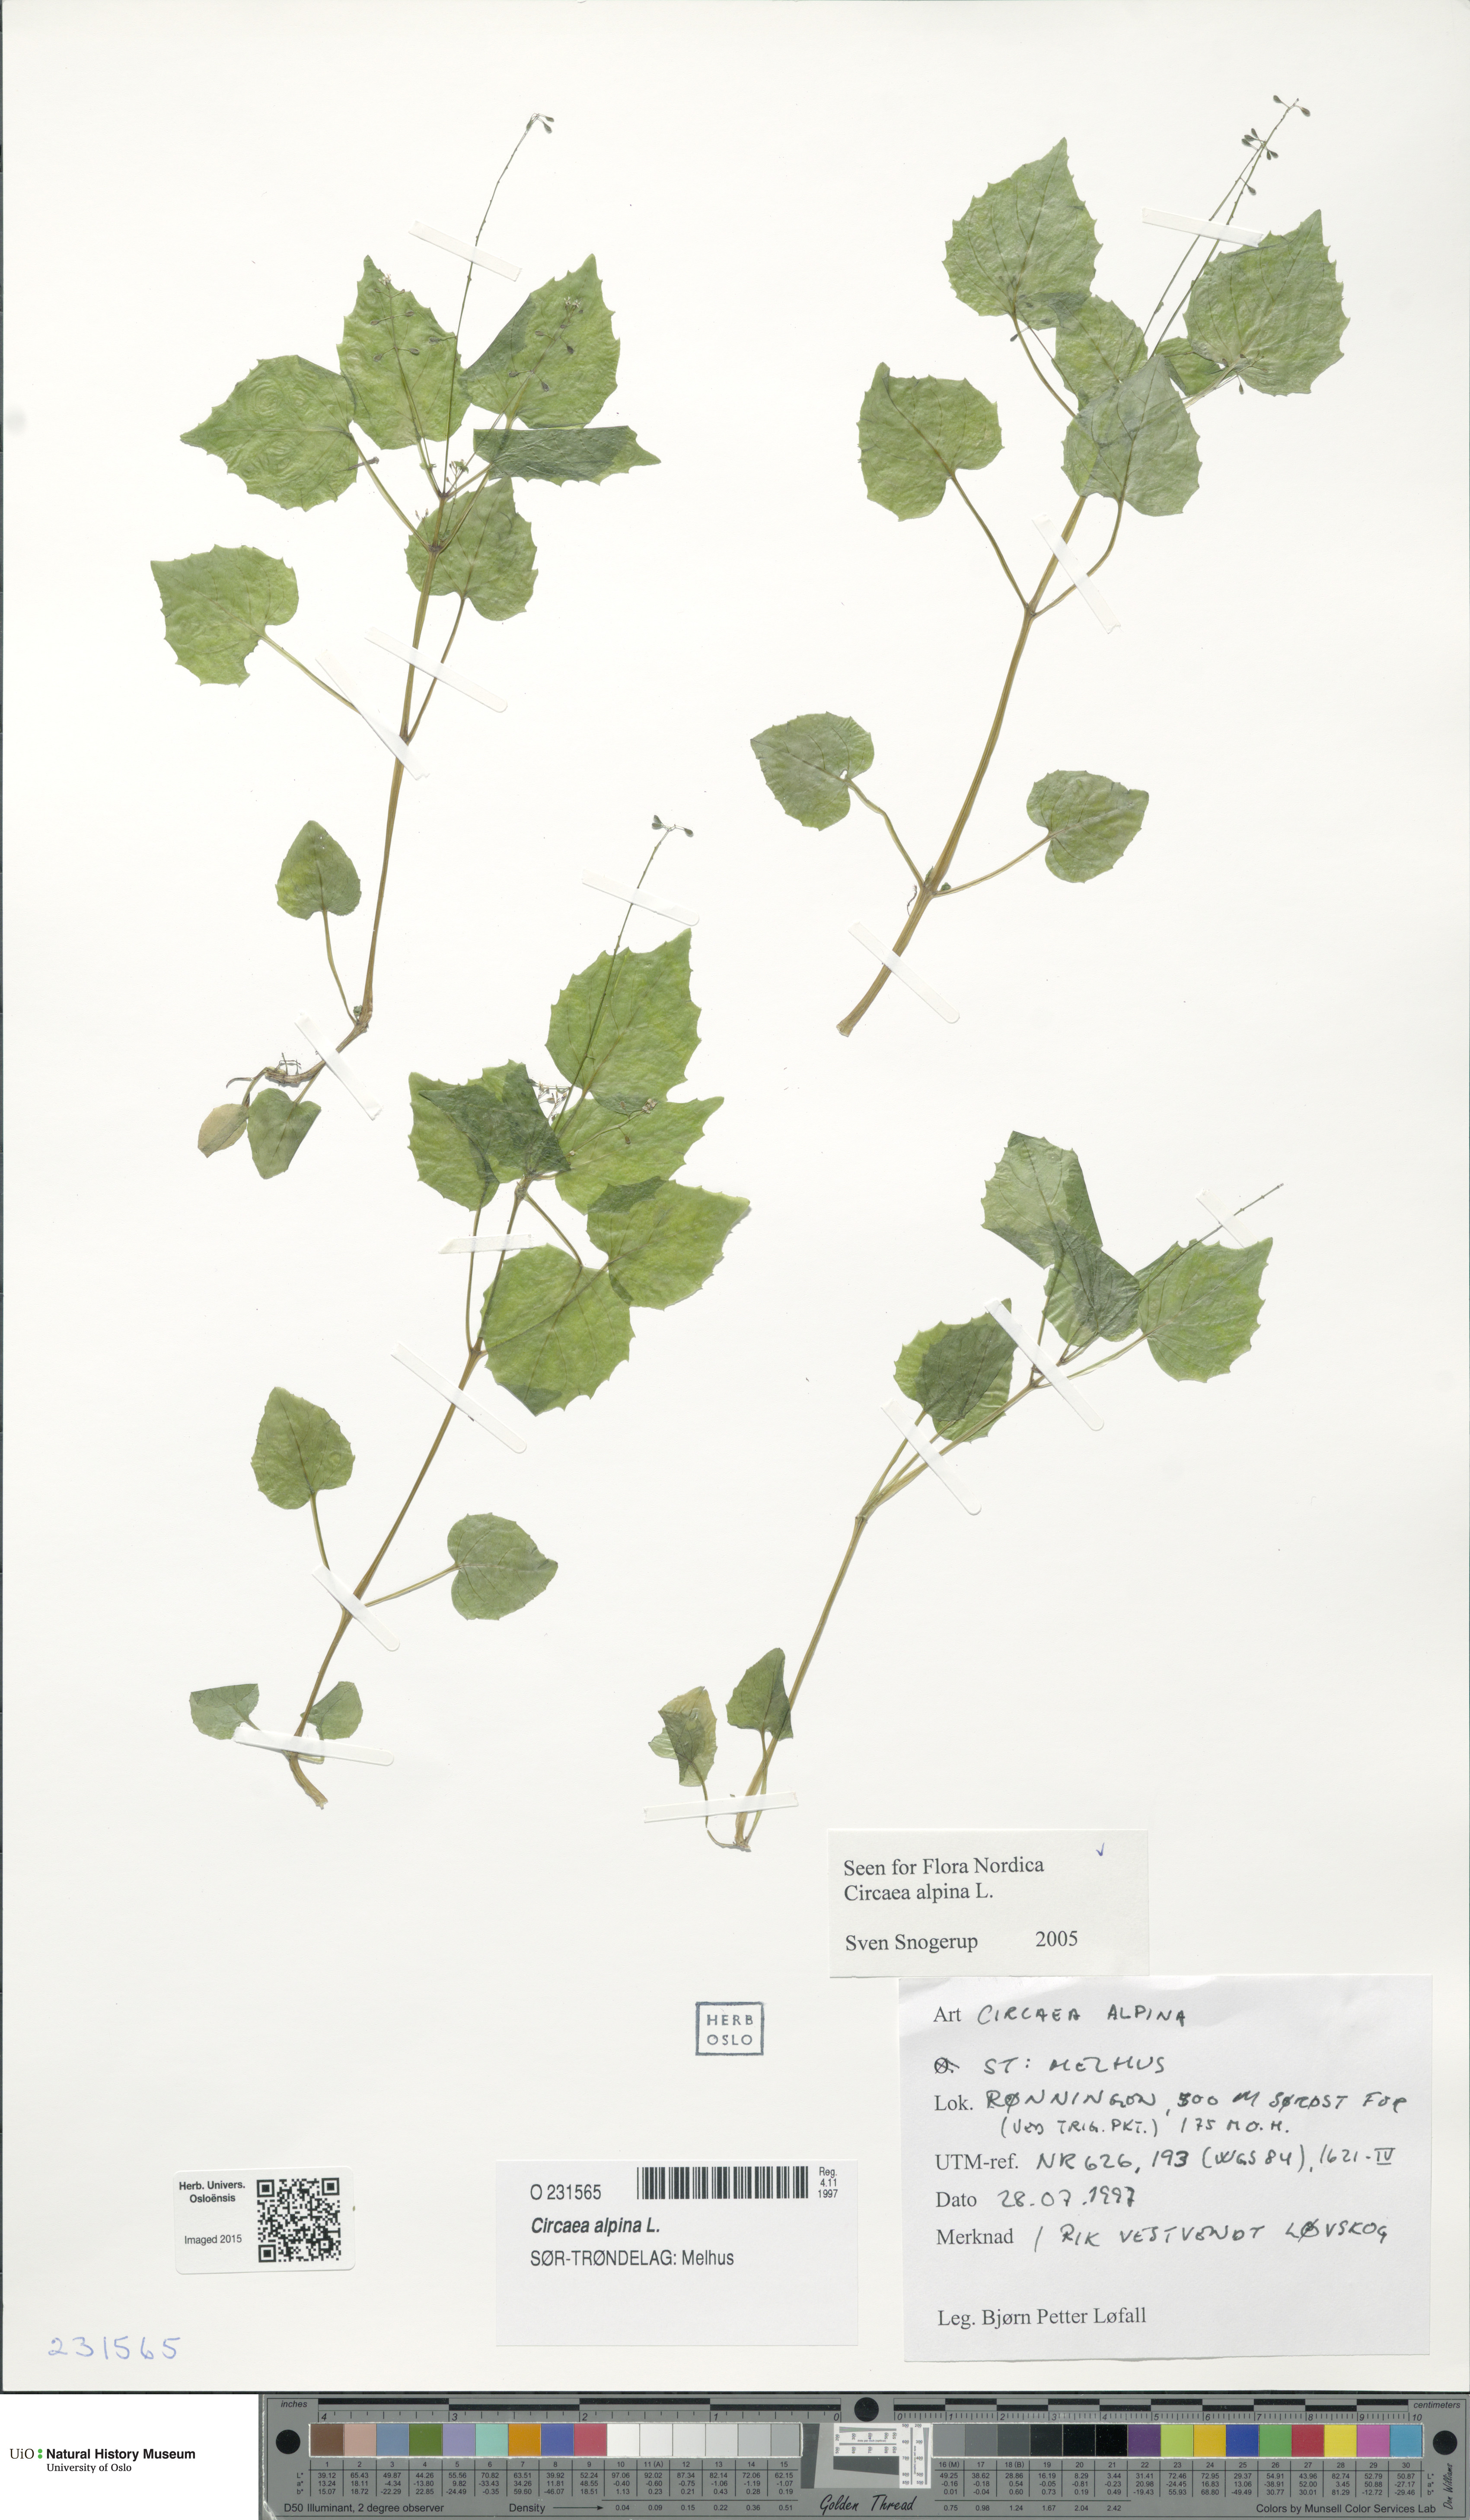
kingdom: Plantae
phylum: Tracheophyta
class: Magnoliopsida
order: Myrtales
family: Onagraceae
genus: Circaea
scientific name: Circaea alpina
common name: Alpine enchanter's-nightshade
